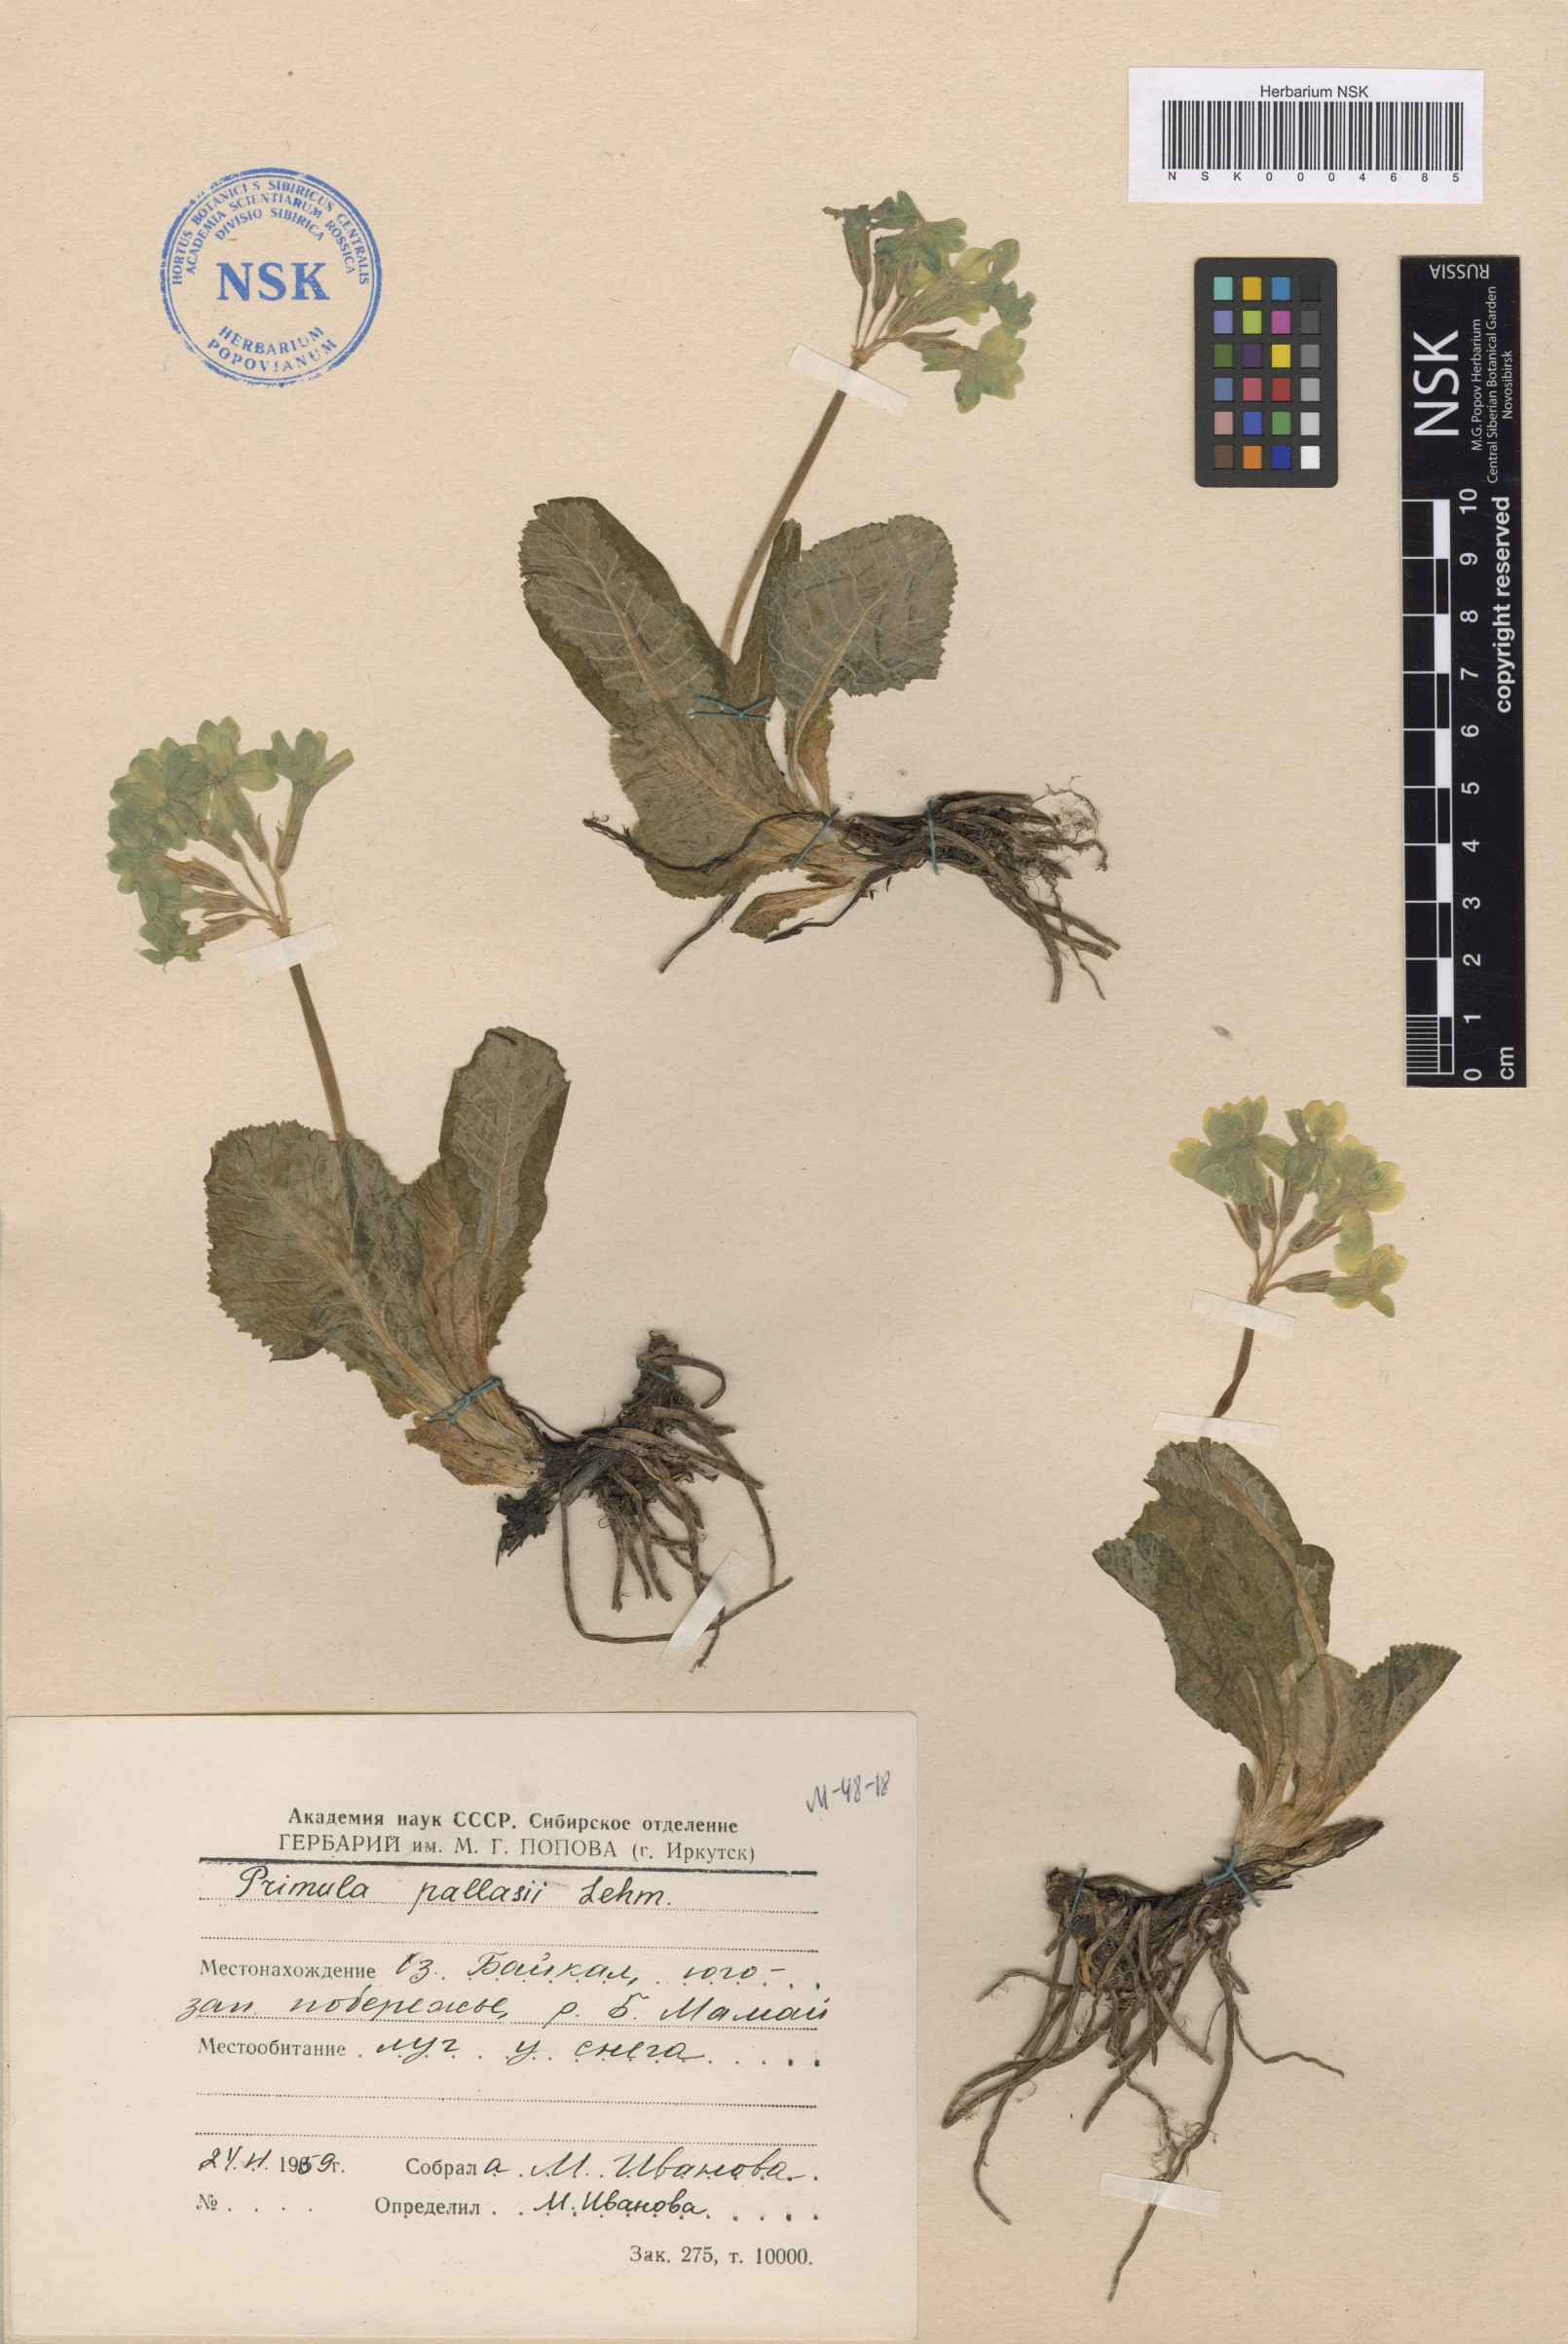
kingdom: Plantae
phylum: Tracheophyta
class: Magnoliopsida
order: Ericales
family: Primulaceae
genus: Primula
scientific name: Primula elatior
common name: Oxlip
